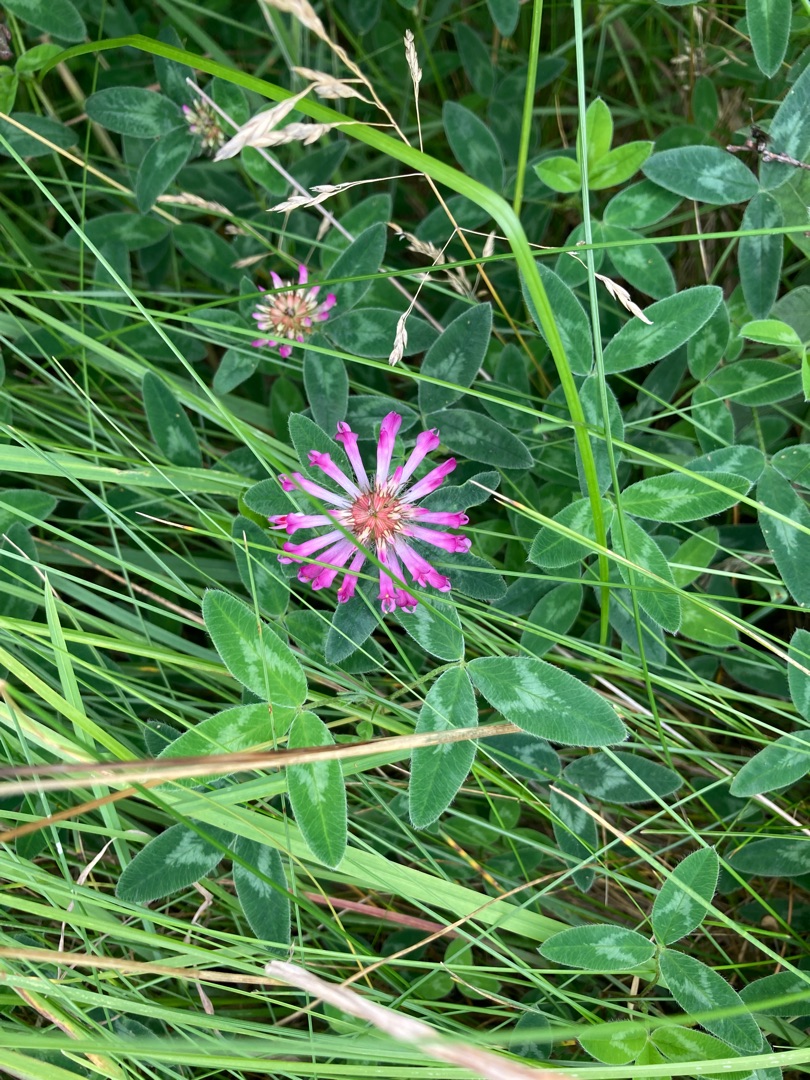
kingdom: Plantae
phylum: Tracheophyta
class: Magnoliopsida
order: Fabales
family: Fabaceae
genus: Trifolium
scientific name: Trifolium medium
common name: Bugtet kløver
